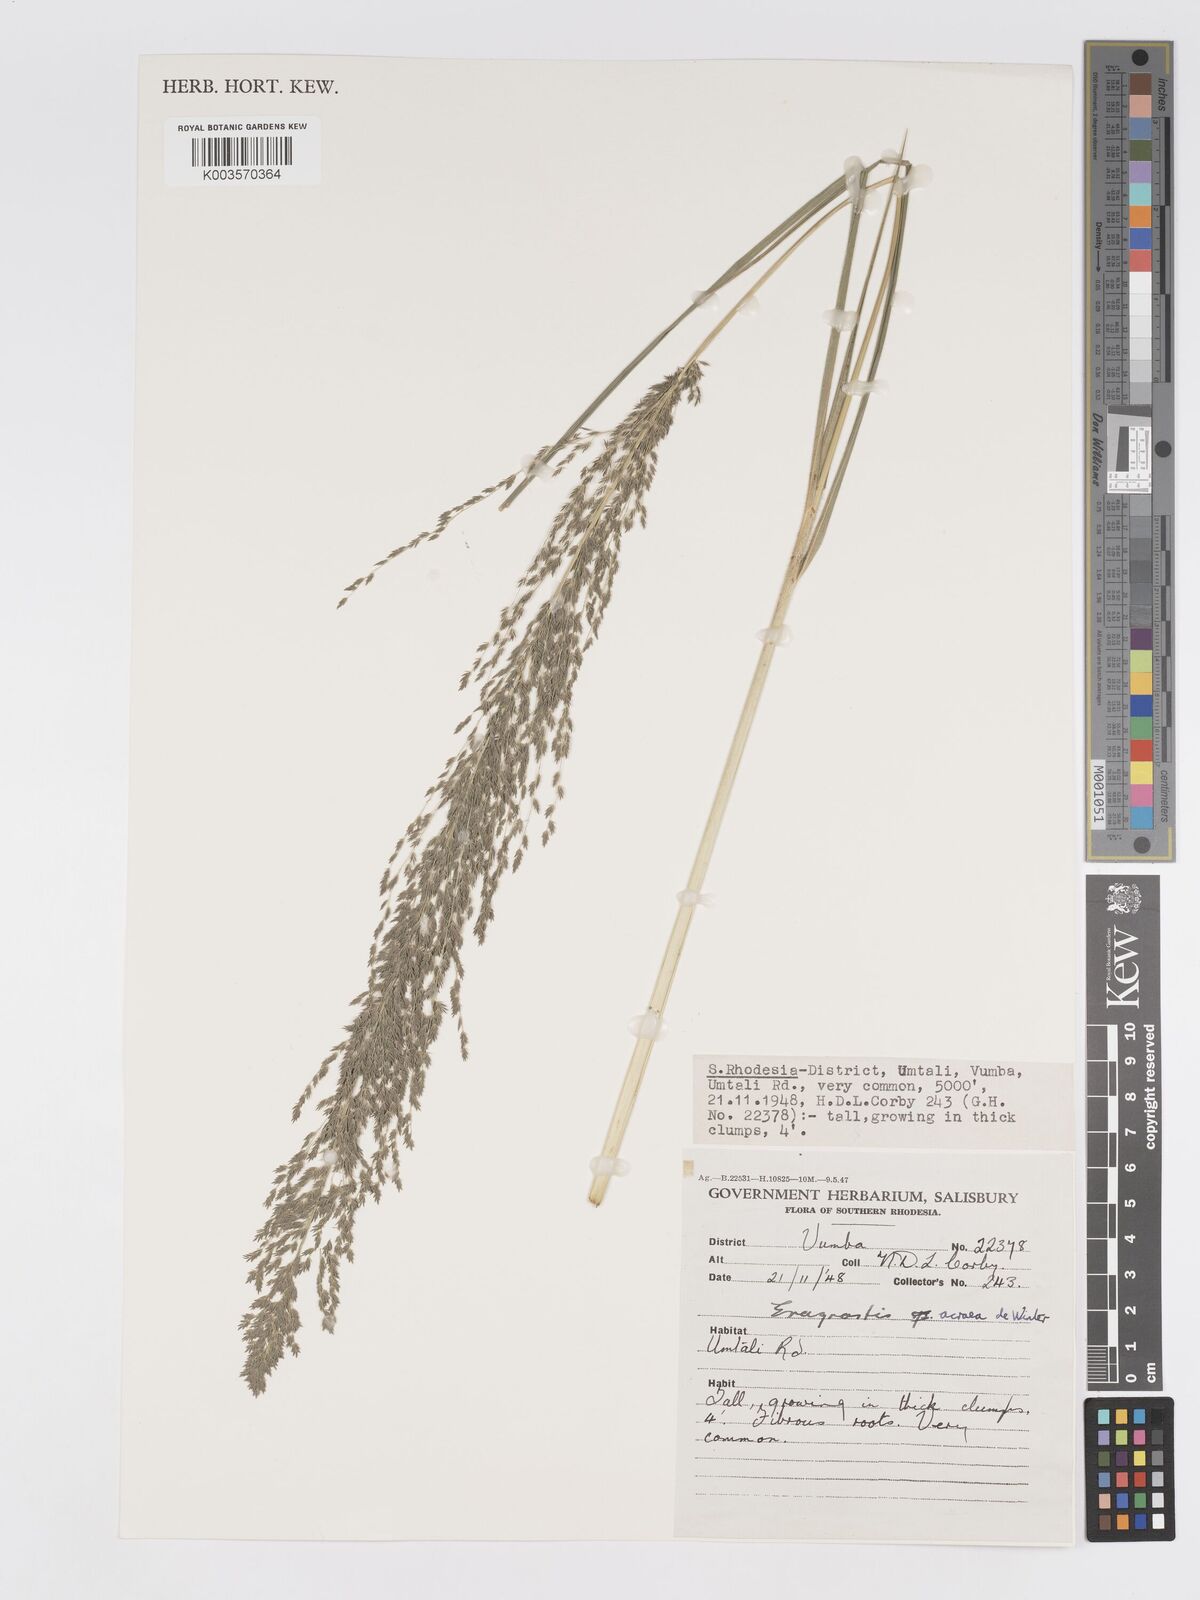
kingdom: Plantae
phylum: Tracheophyta
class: Liliopsida
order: Poales
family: Poaceae
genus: Eragrostis
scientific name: Eragrostis acraea
